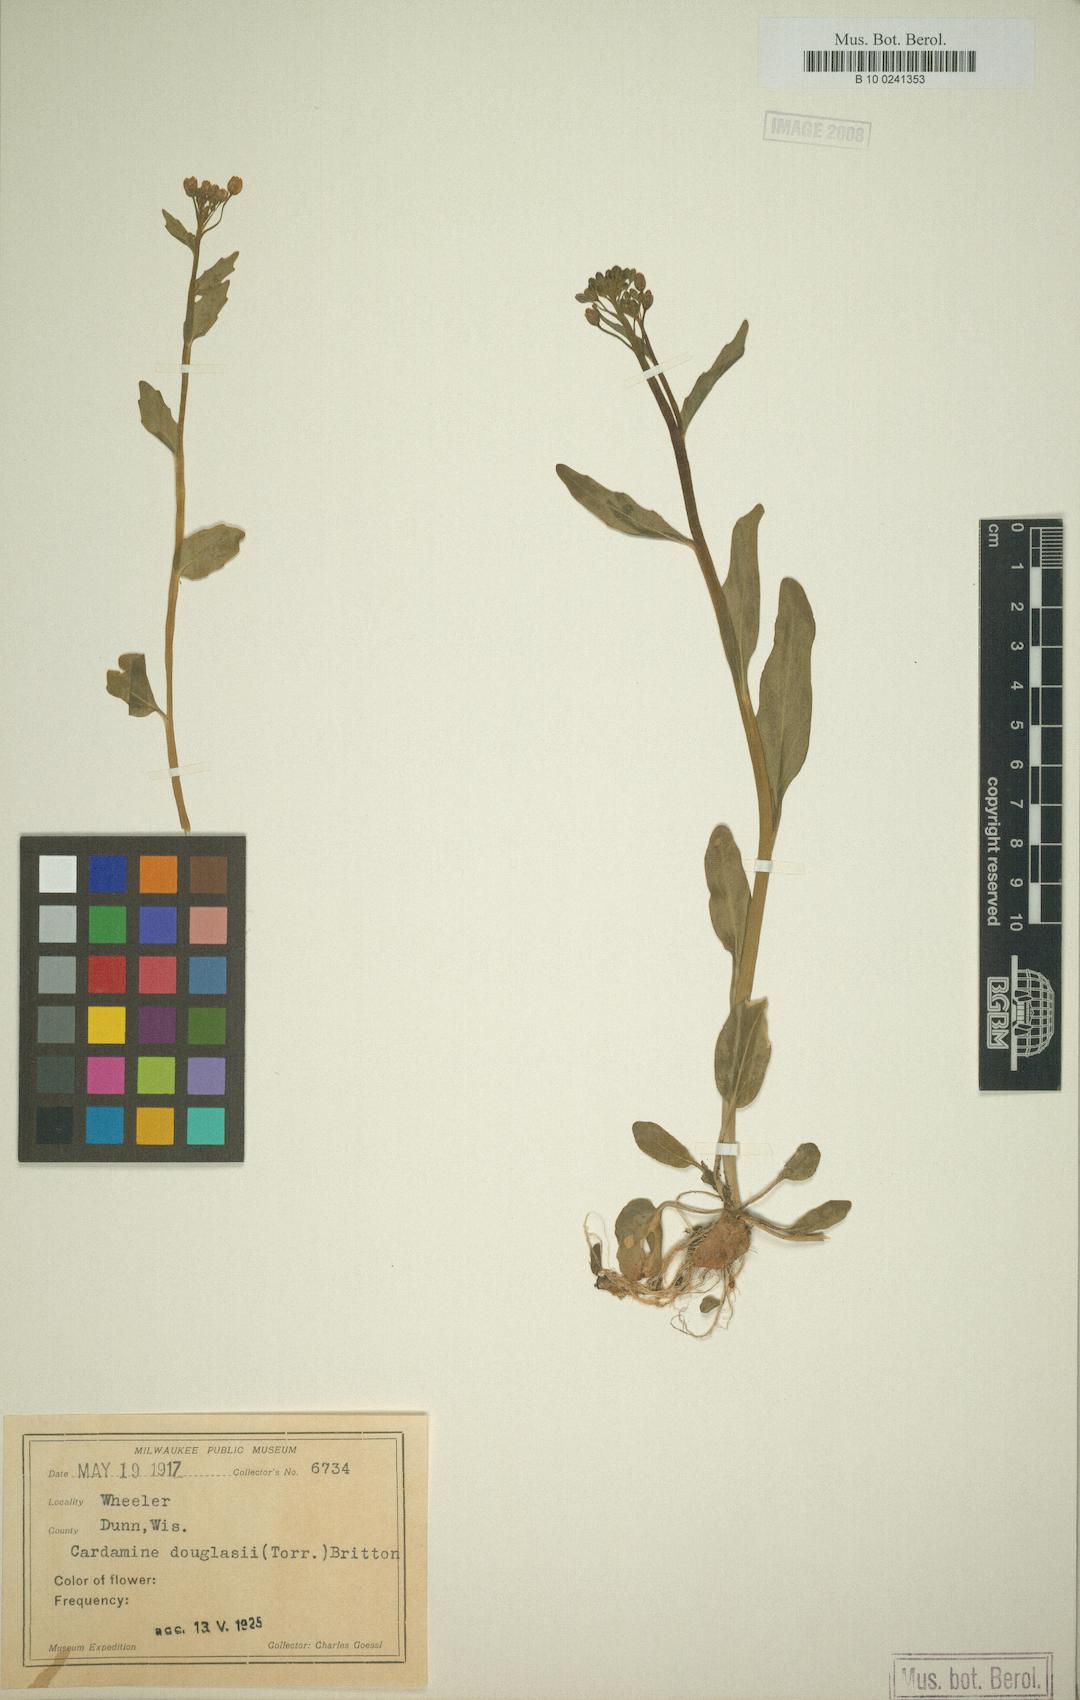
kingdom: Plantae
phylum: Tracheophyta
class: Magnoliopsida
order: Brassicales
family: Brassicaceae
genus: Cardamine
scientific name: Cardamine bulbosa
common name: Spring cress
